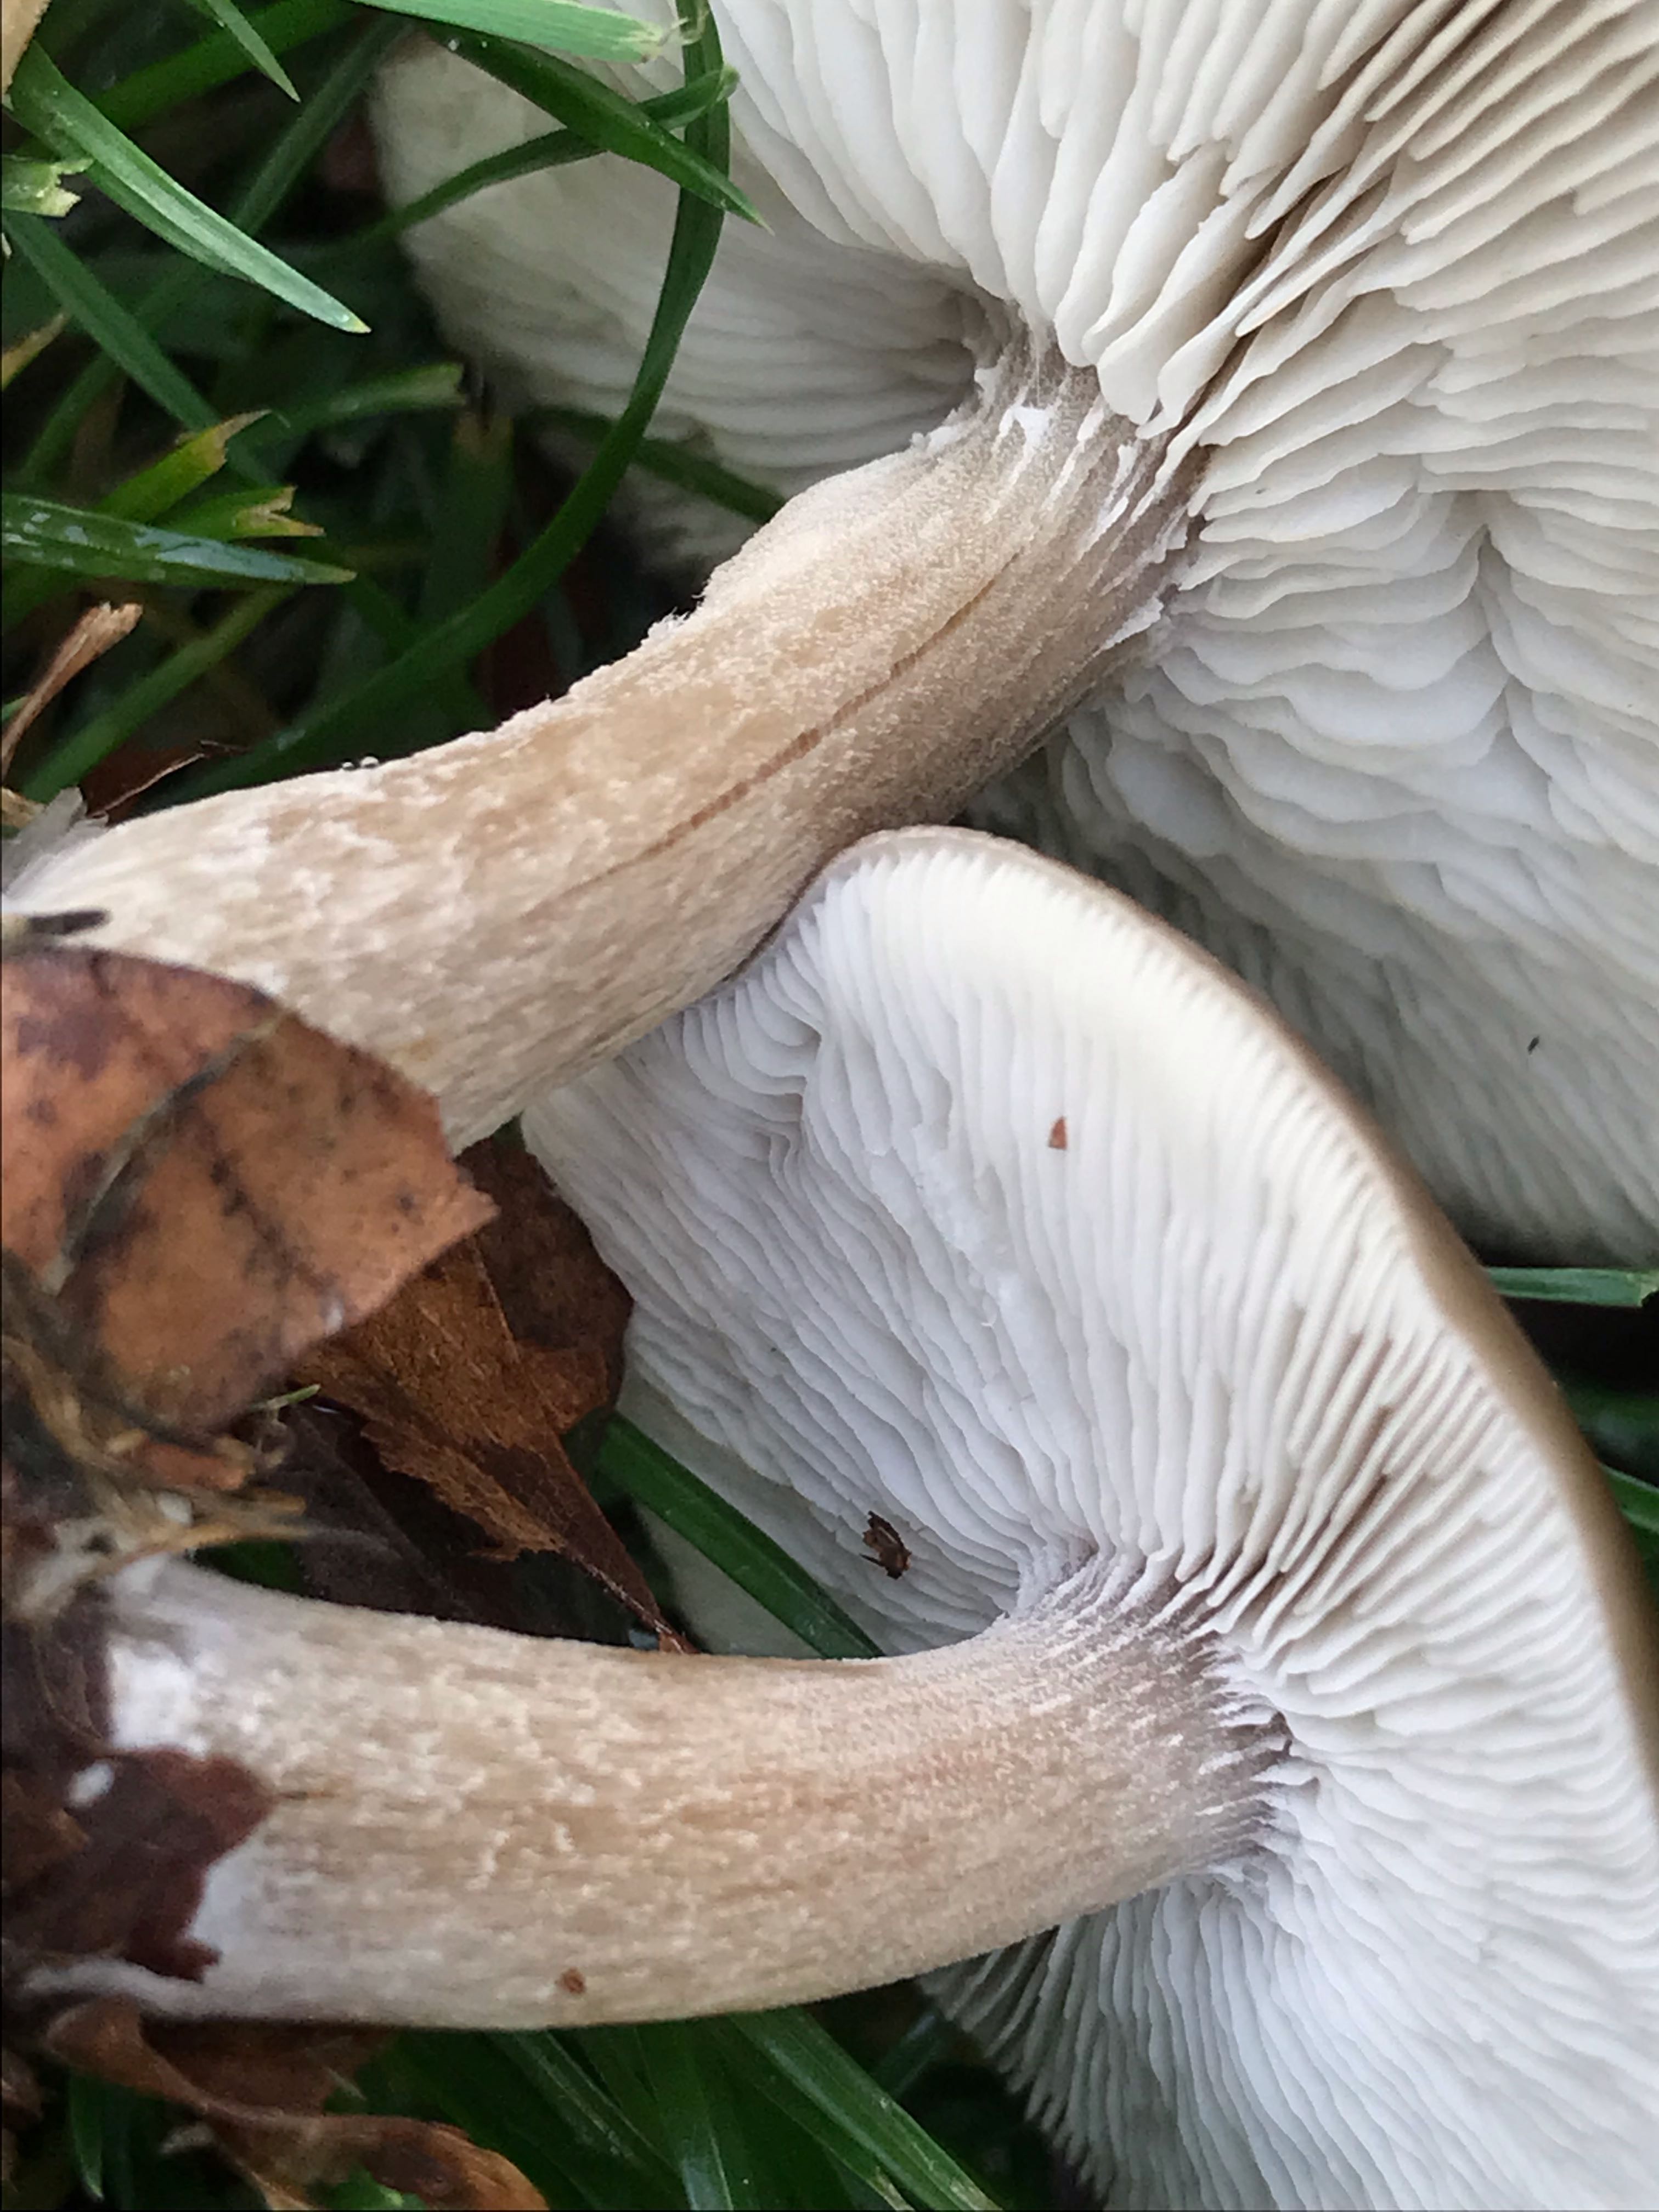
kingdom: Fungi
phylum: Basidiomycota
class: Agaricomycetes
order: Agaricales
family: Tricholomataceae
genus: Melanoleuca
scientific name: Melanoleuca
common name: munkehat
